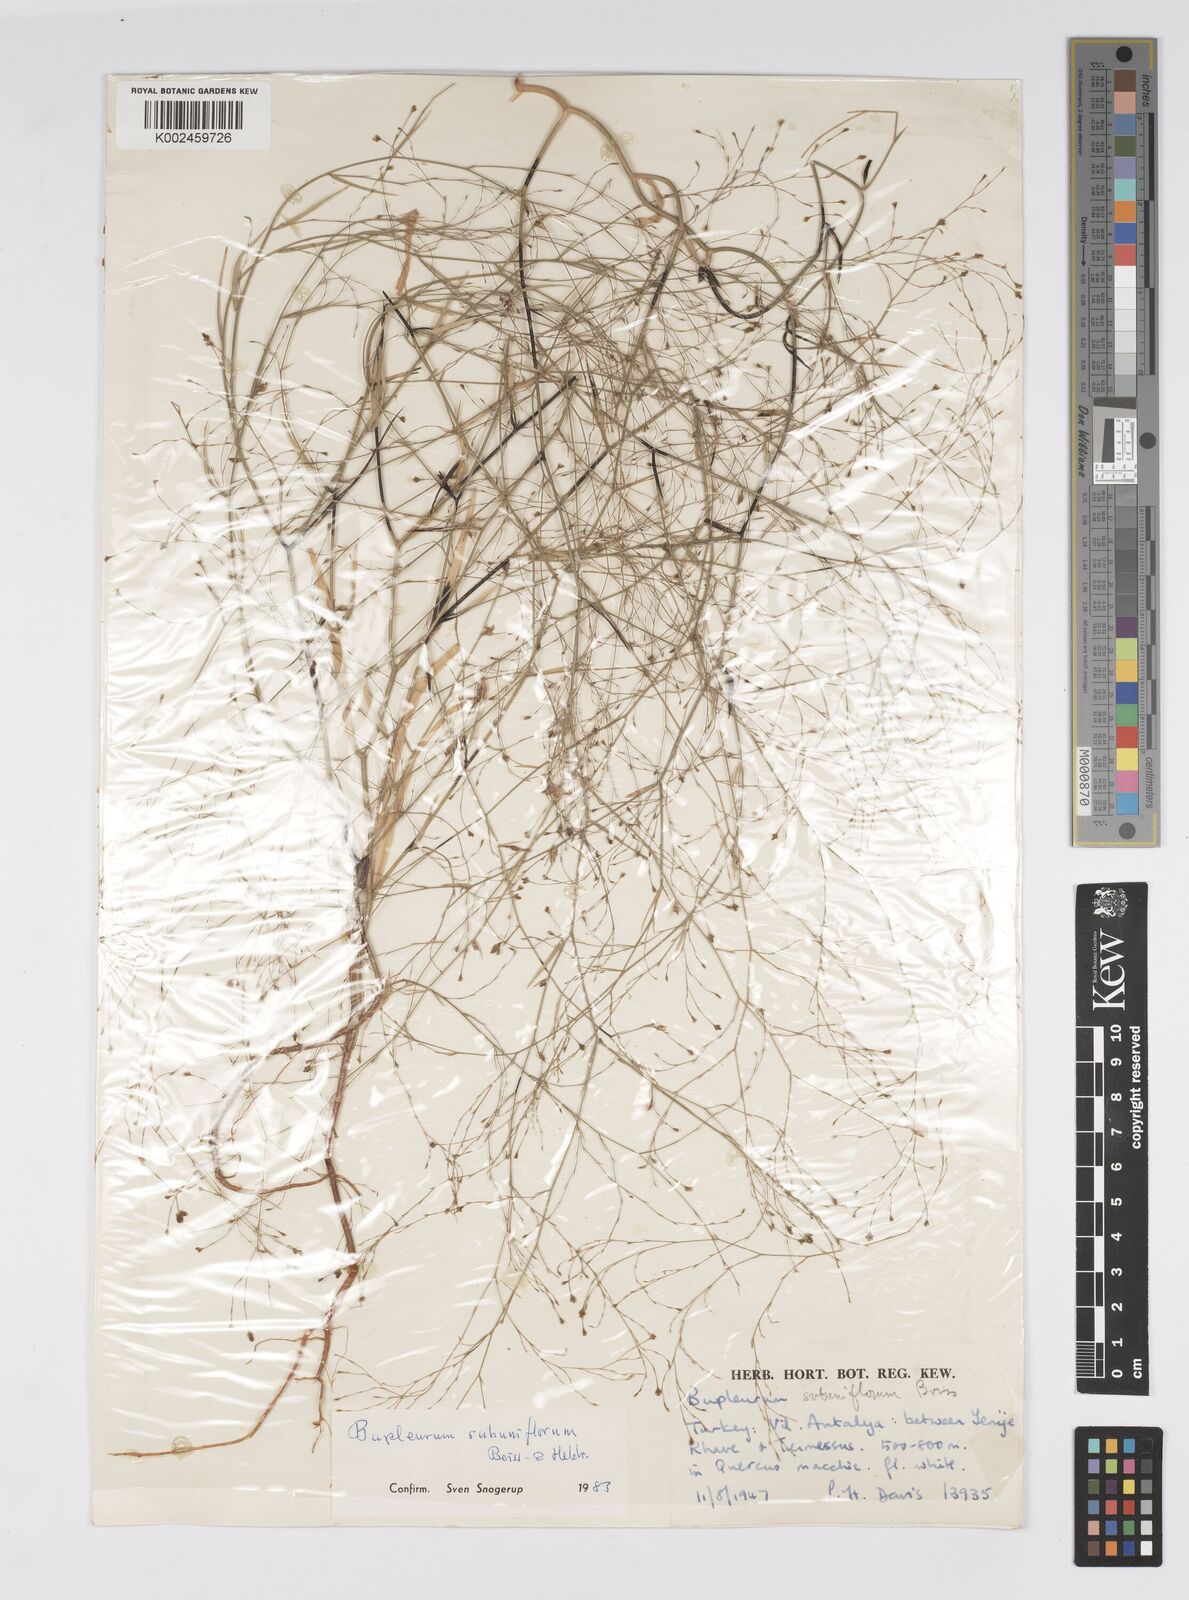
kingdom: Plantae
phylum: Tracheophyta
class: Magnoliopsida
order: Apiales
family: Apiaceae
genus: Bupleurum
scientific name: Bupleurum subuniflorum
